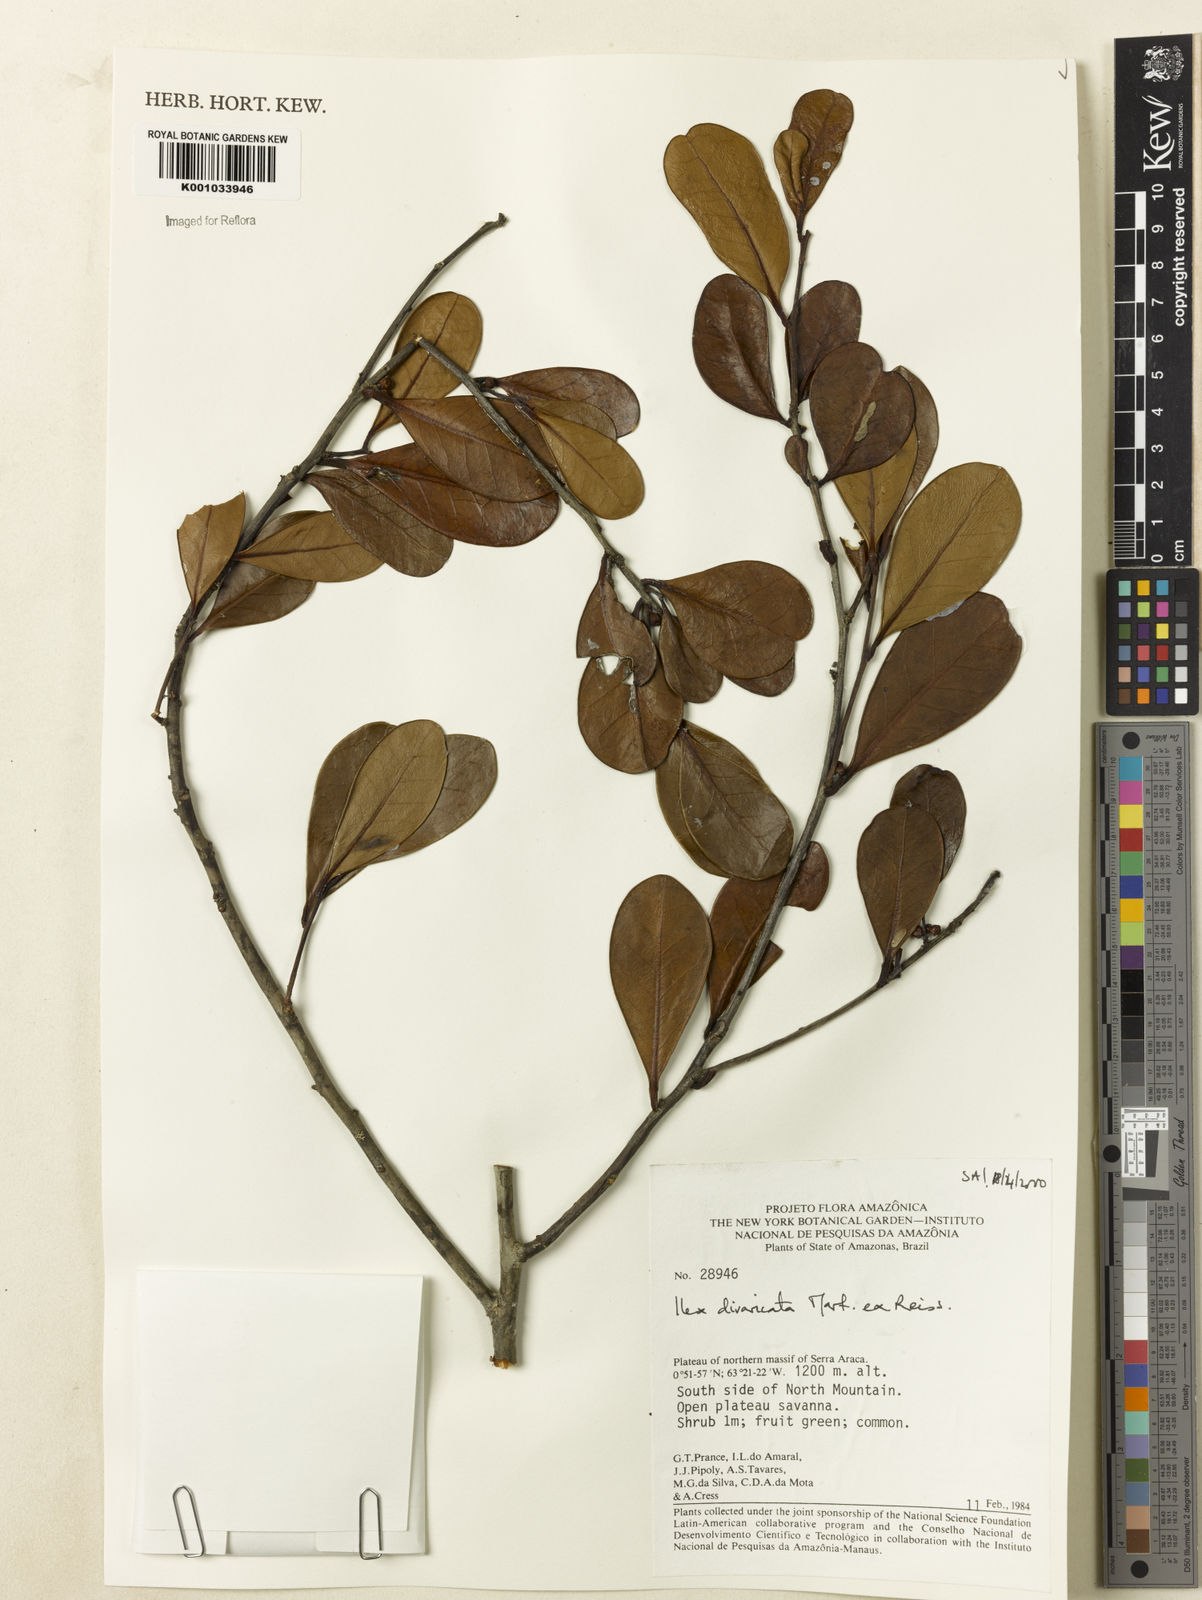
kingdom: Plantae
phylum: Tracheophyta
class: Magnoliopsida
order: Aquifoliales
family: Aquifoliaceae
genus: Ilex
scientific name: Ilex divaricata
